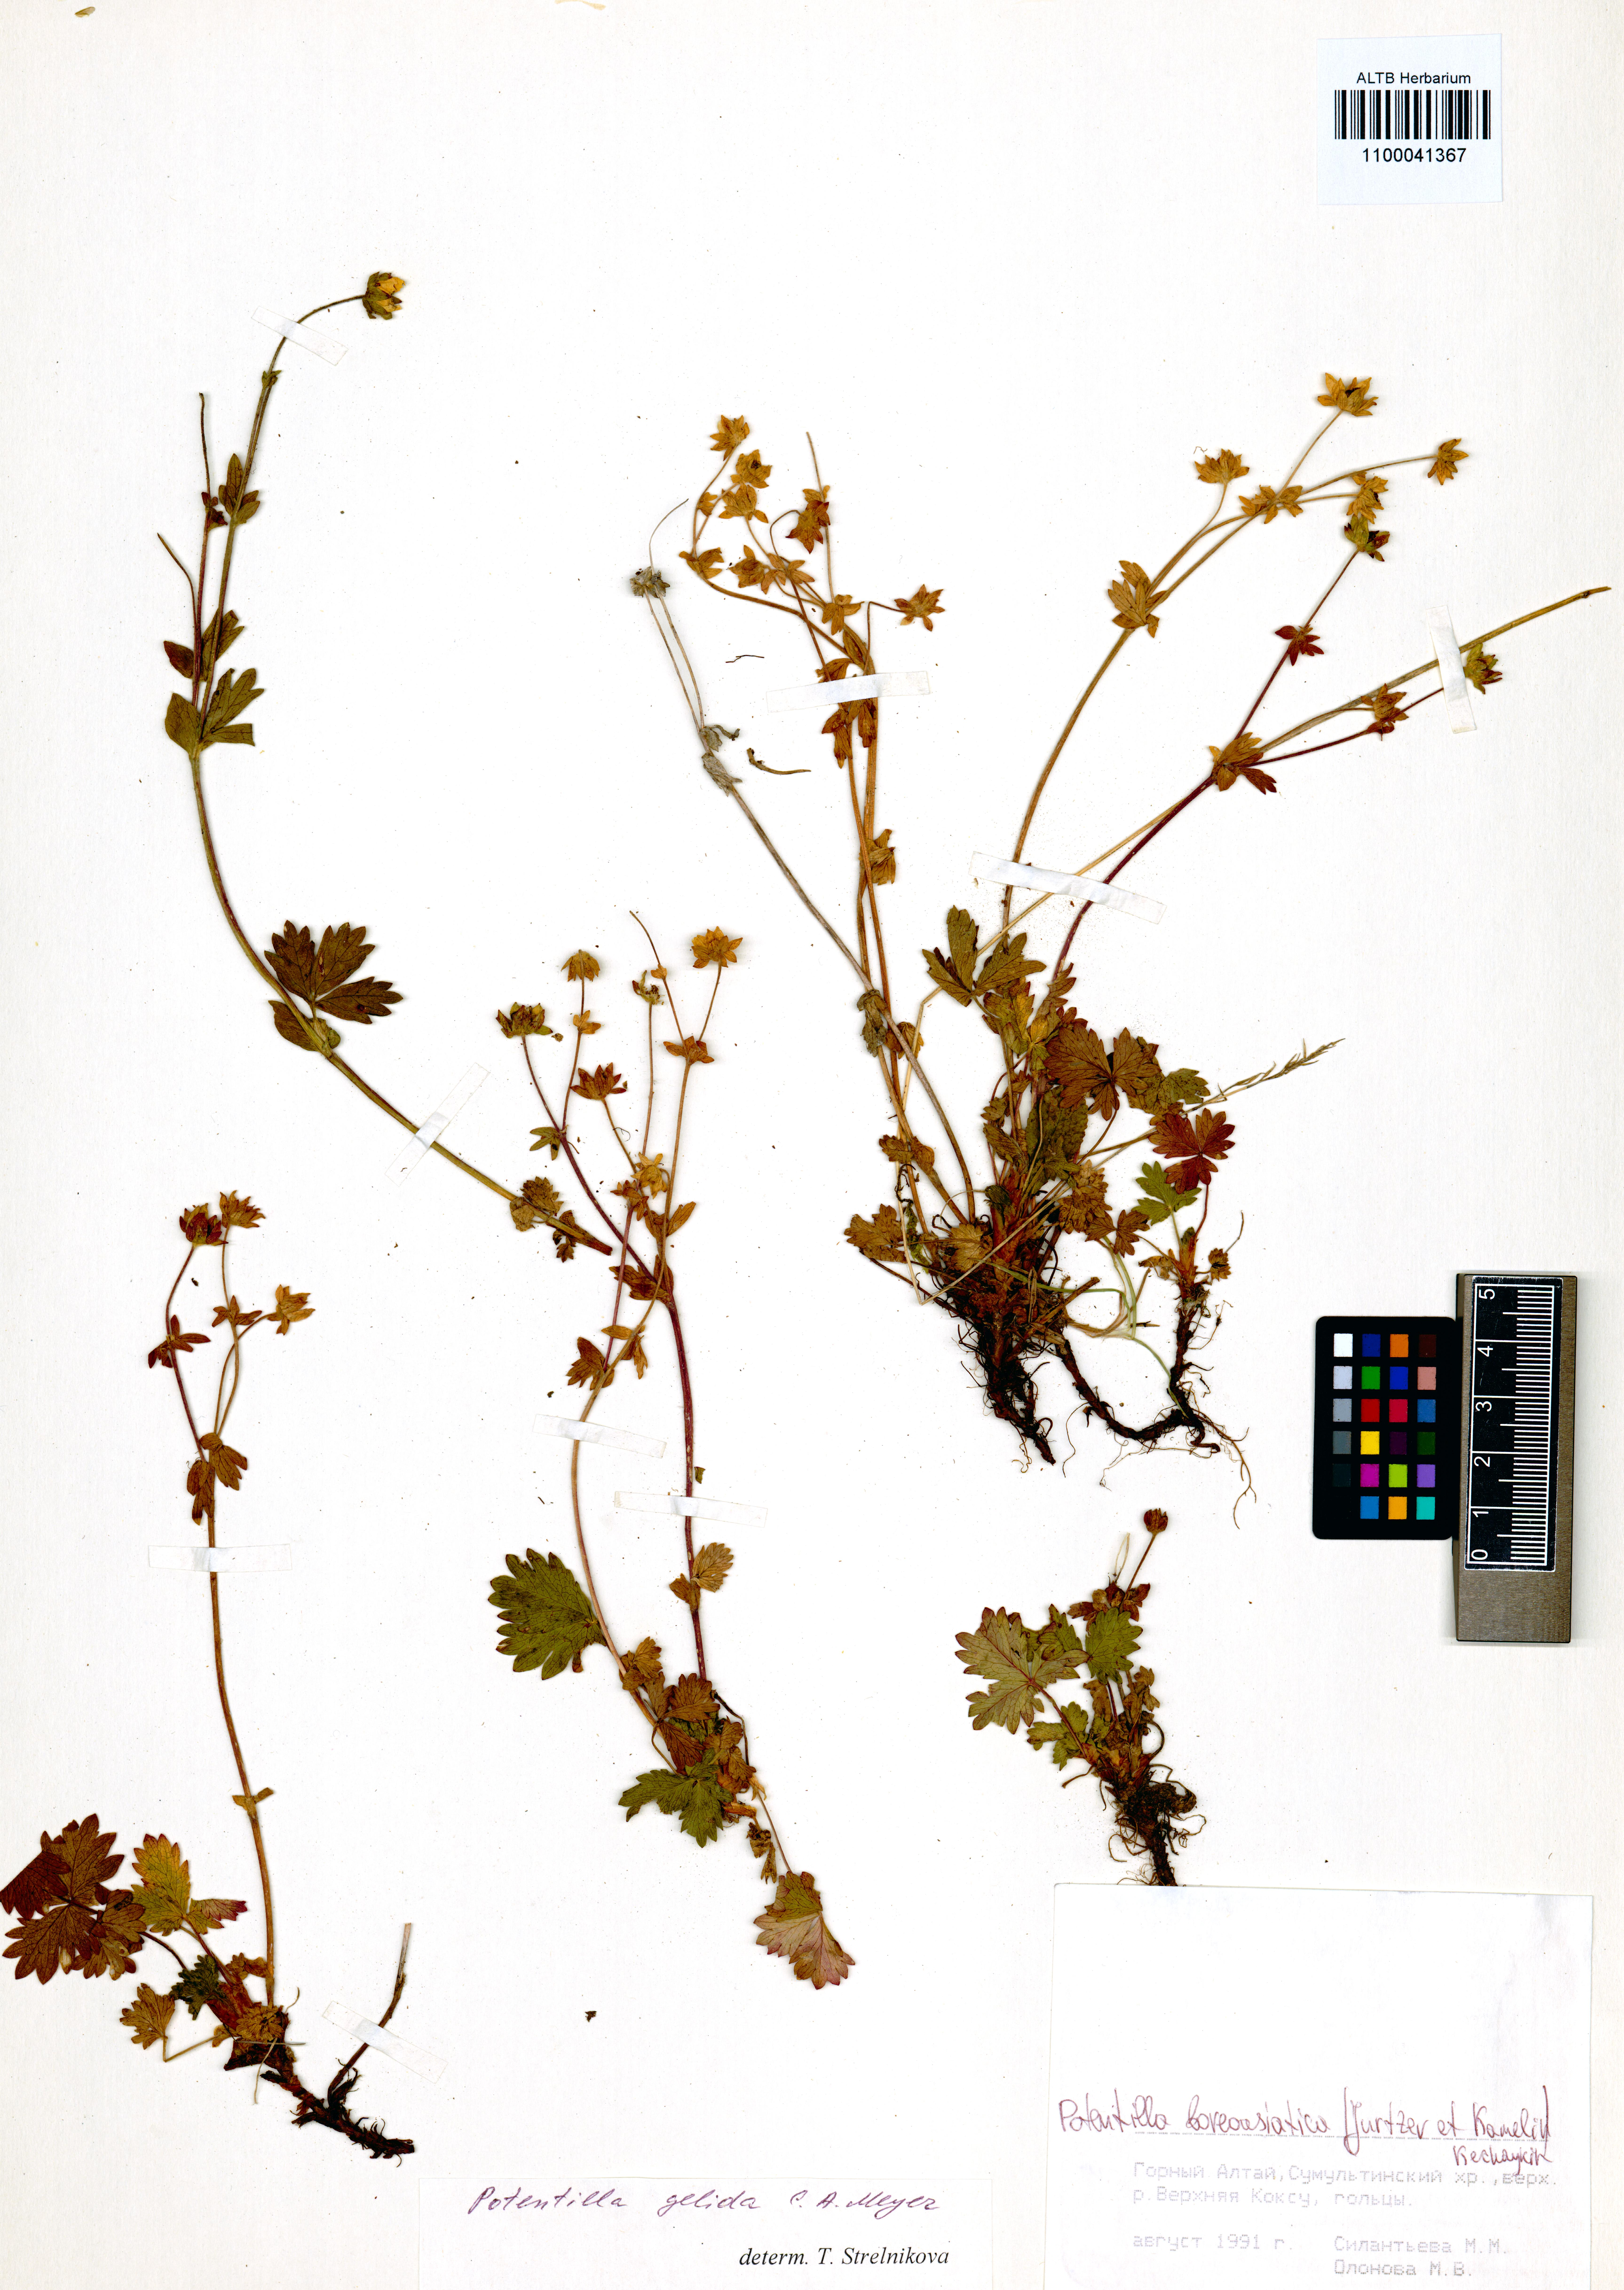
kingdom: Plantae
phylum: Tracheophyta
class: Magnoliopsida
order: Rosales
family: Rosaceae
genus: Potentilla
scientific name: Potentilla
